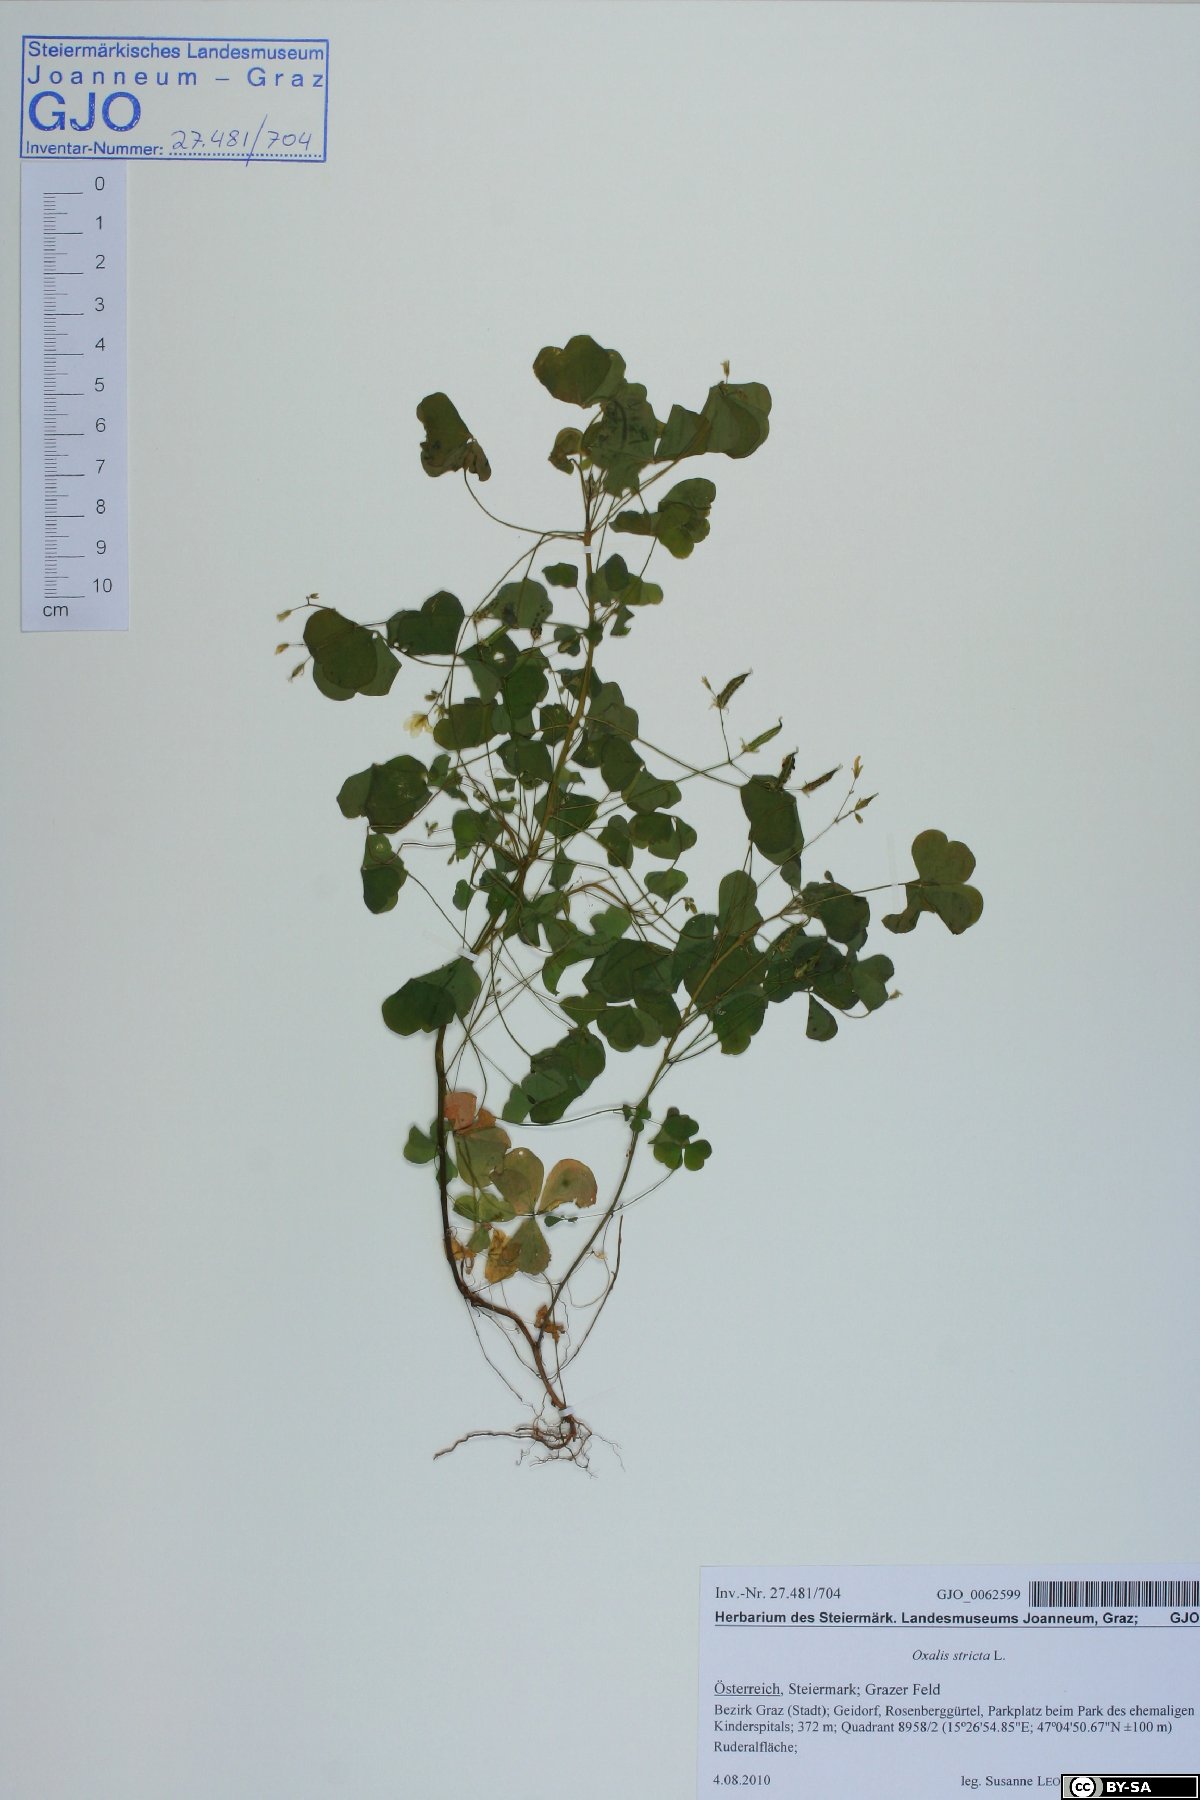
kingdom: Plantae
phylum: Tracheophyta
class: Magnoliopsida
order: Oxalidales
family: Oxalidaceae
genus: Oxalis
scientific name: Oxalis stricta
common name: Upright yellow-sorrel
